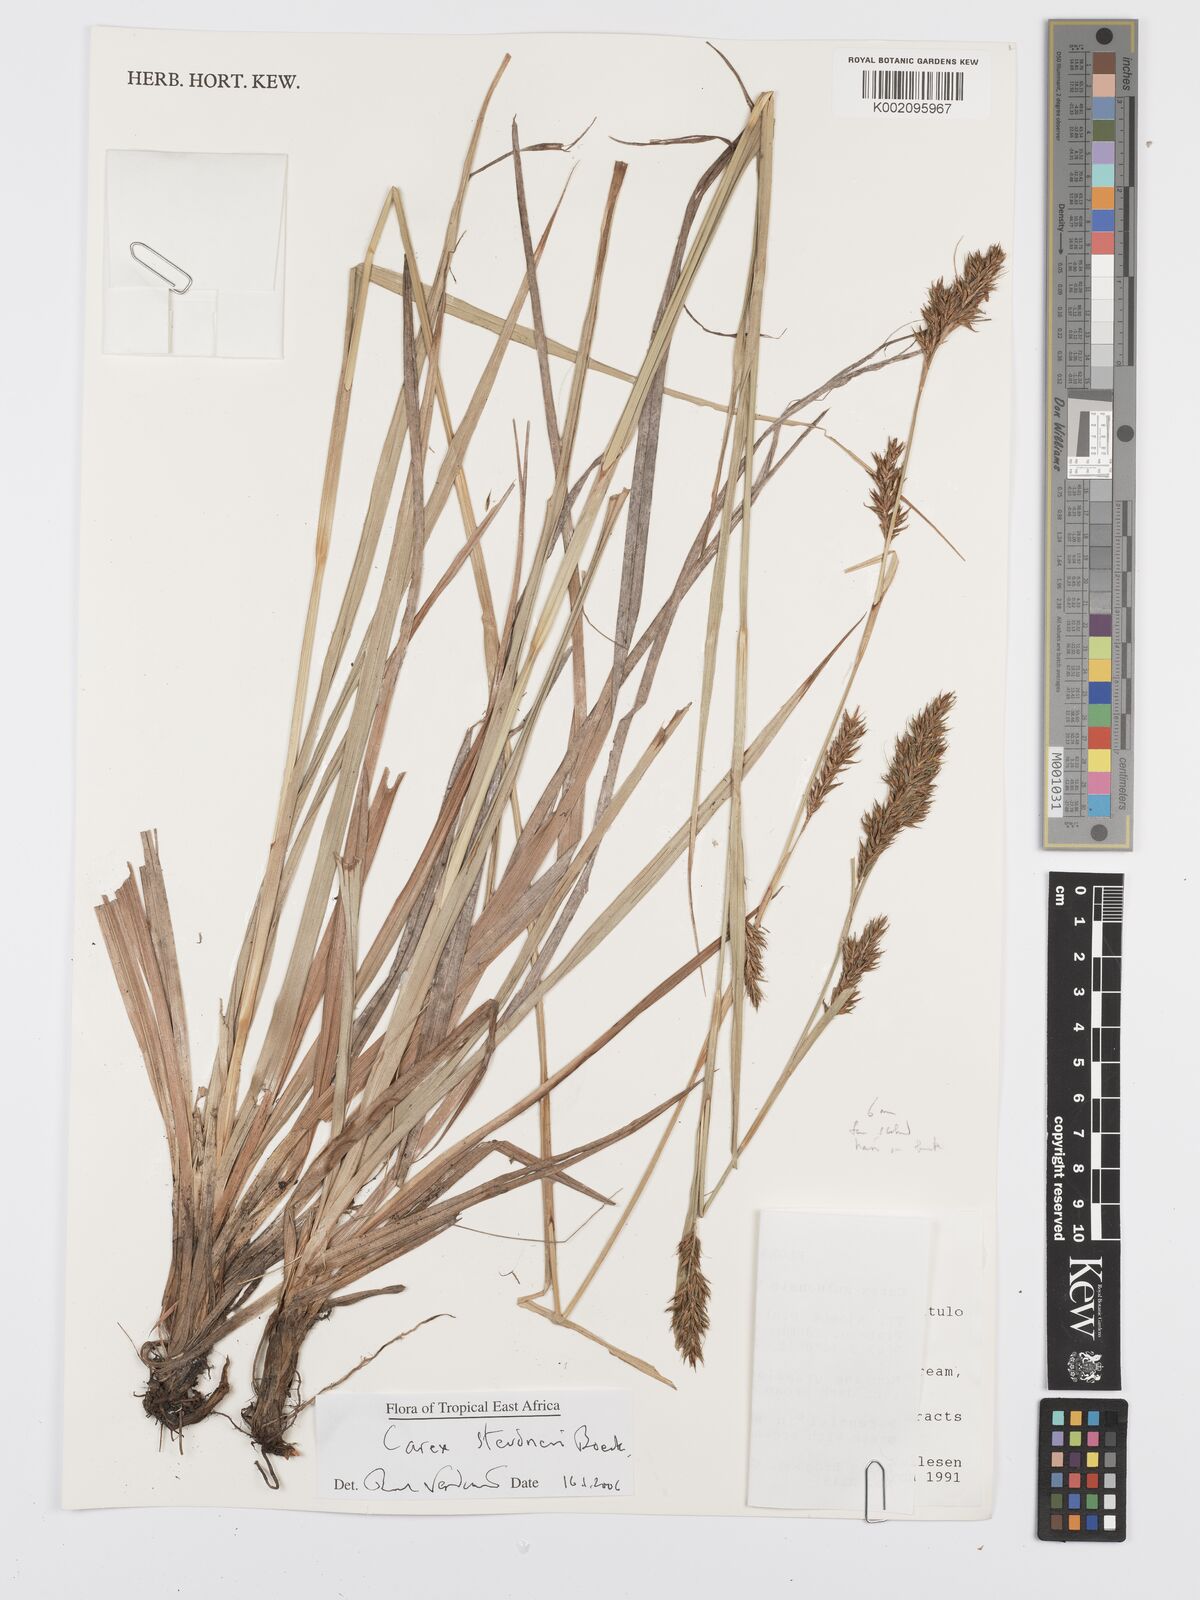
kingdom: Plantae
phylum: Tracheophyta
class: Liliopsida
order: Poales
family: Cyperaceae
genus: Carex
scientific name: Carex steudneri
